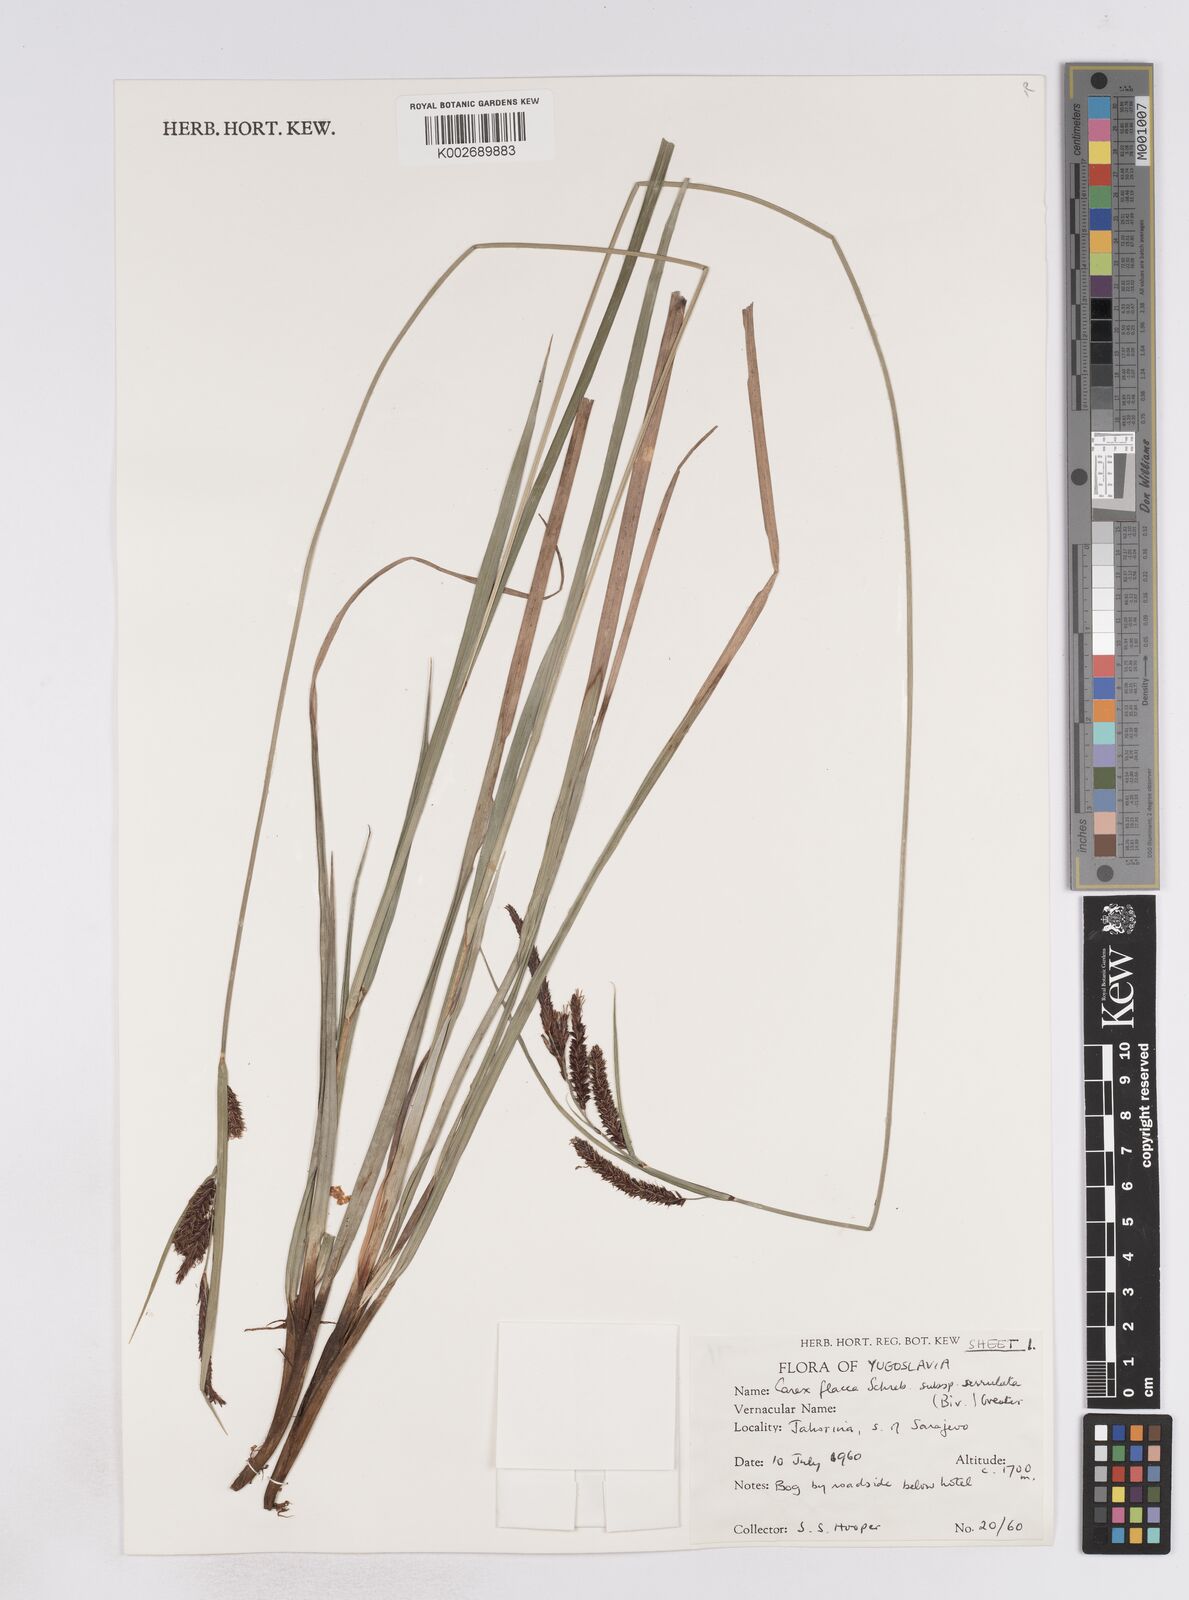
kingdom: Plantae
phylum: Tracheophyta
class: Liliopsida
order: Poales
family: Cyperaceae
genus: Carex
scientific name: Carex flacca
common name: Glaucous sedge
